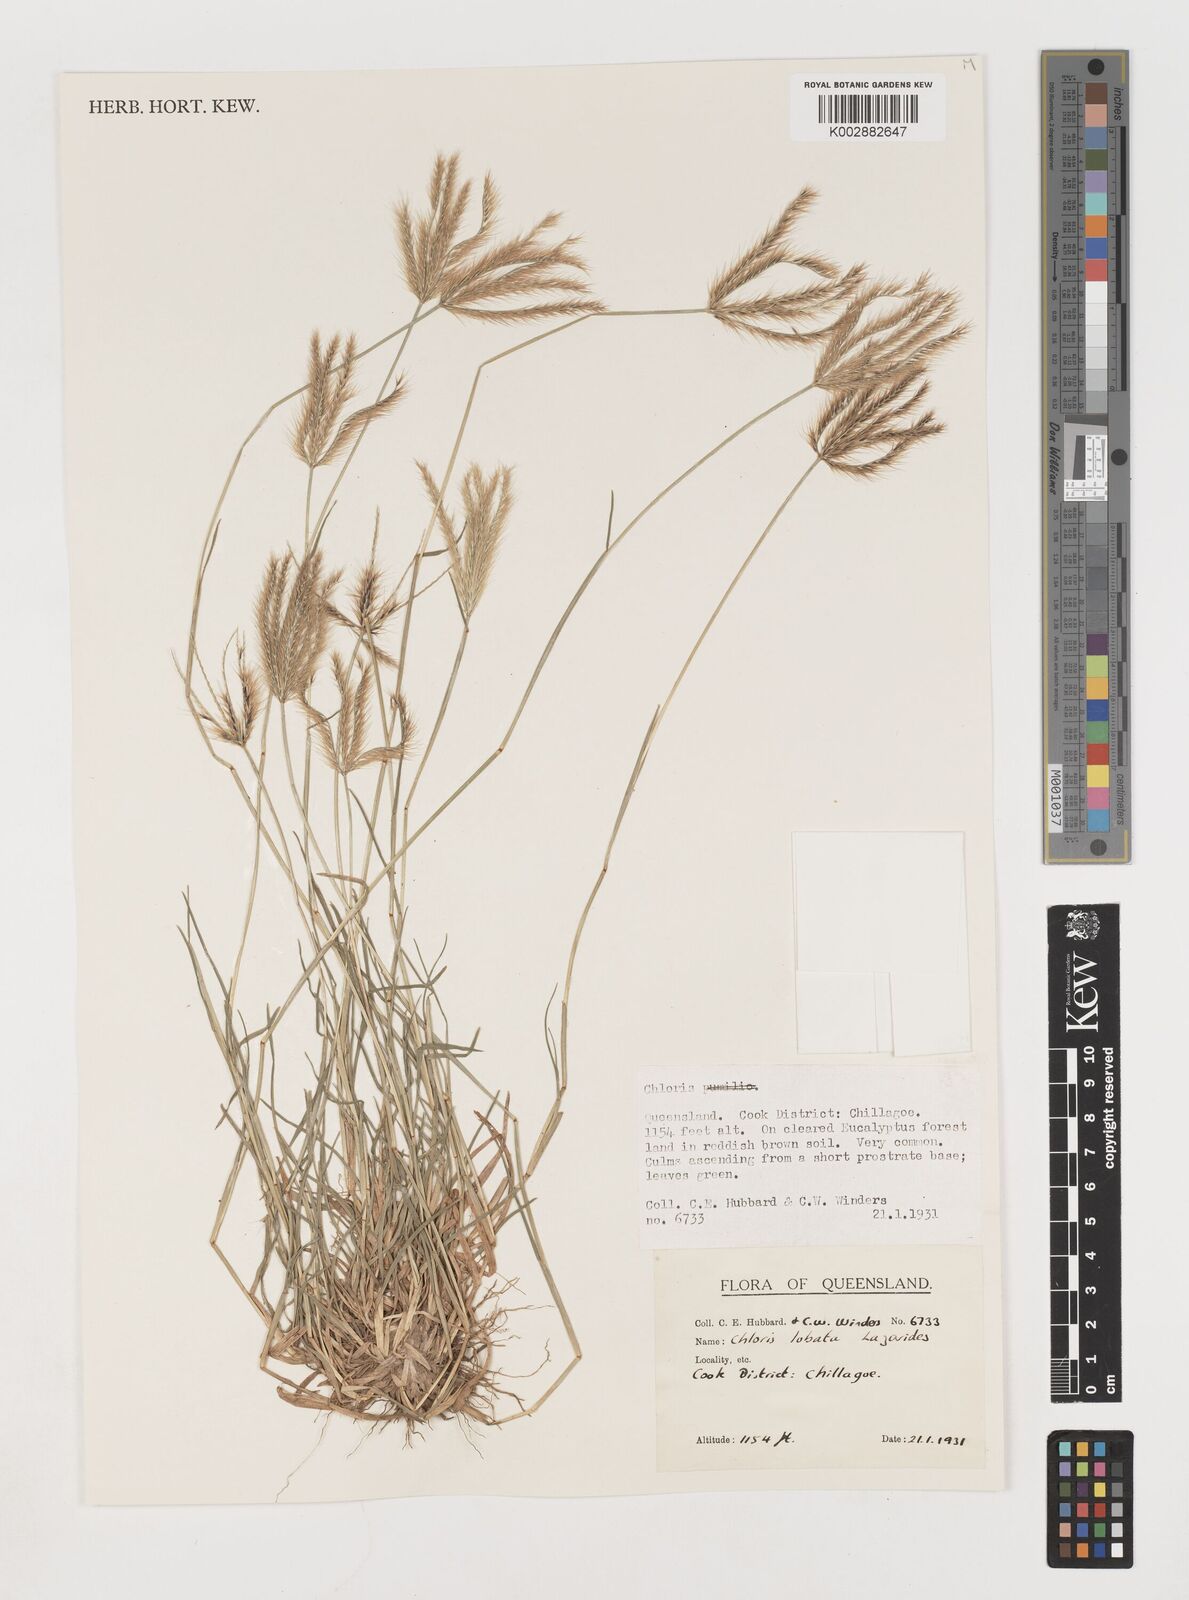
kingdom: Plantae
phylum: Tracheophyta
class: Liliopsida
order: Poales
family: Poaceae
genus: Chloris
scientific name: Chloris lobata
